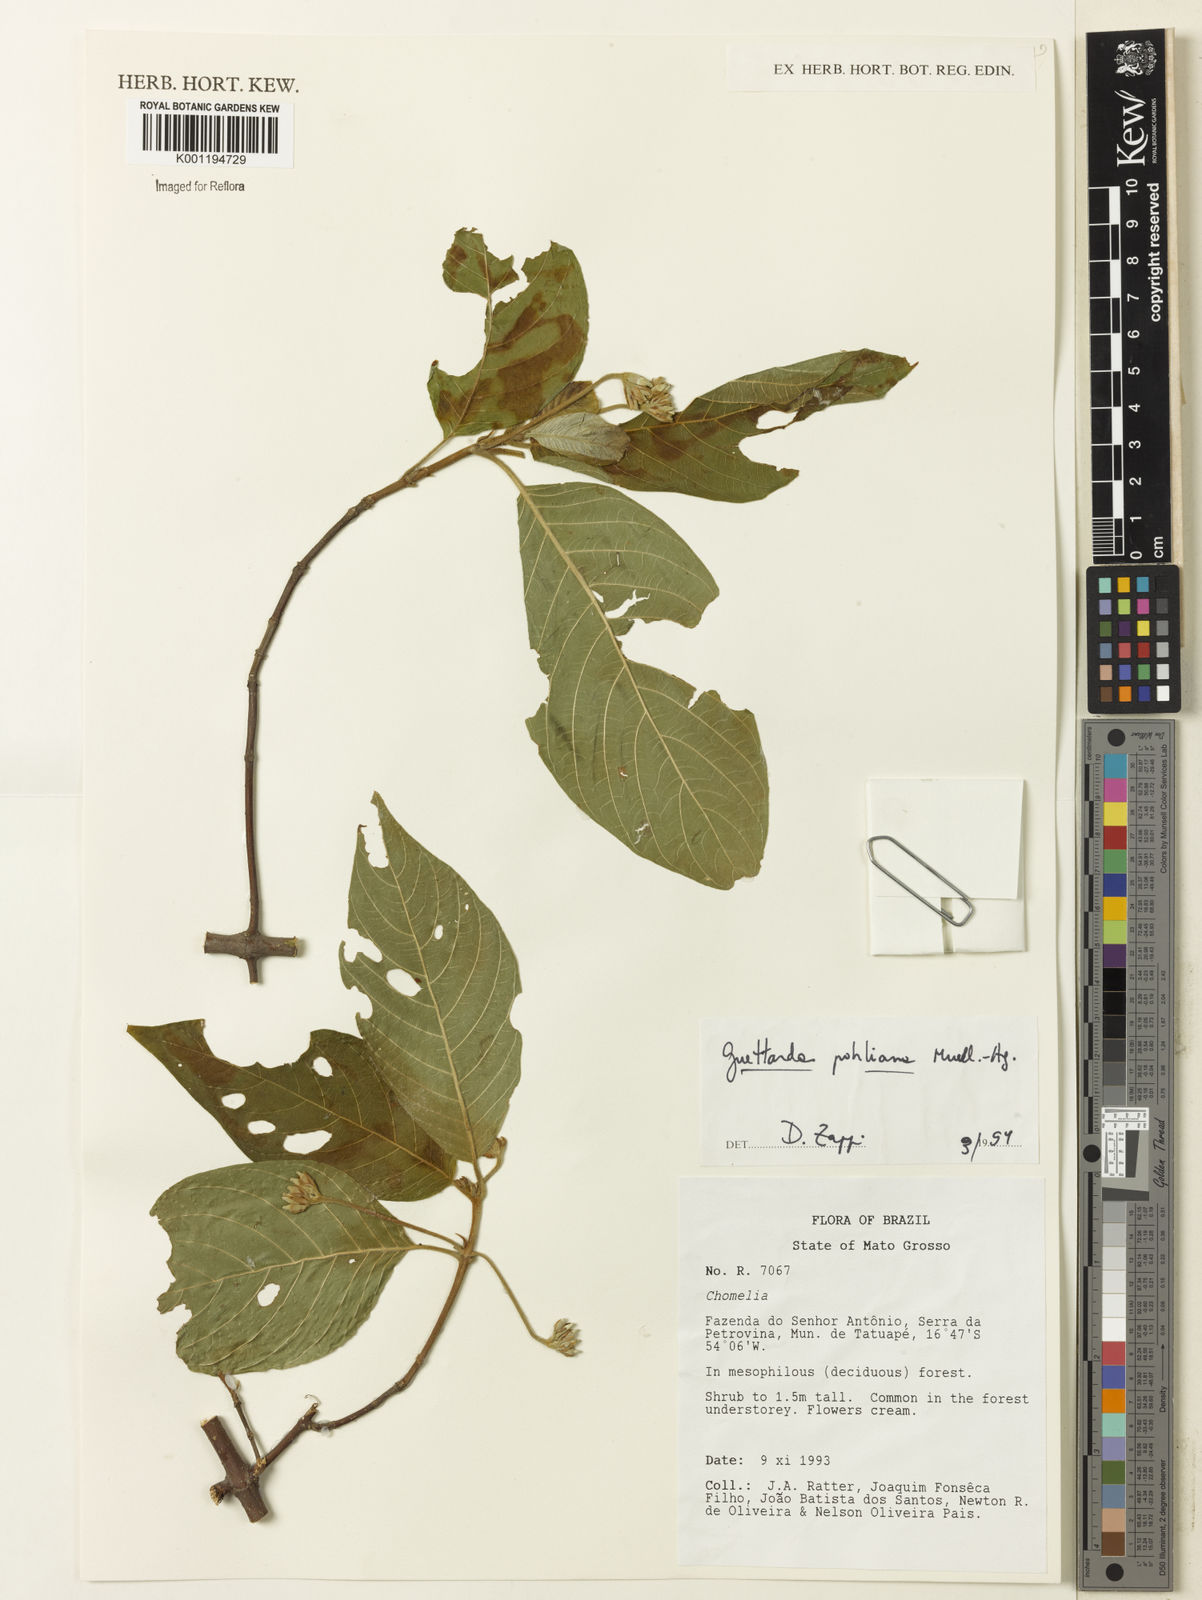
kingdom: Plantae
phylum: Tracheophyta
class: Magnoliopsida
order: Gentianales
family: Rubiaceae
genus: Guettarda
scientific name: Guettarda mattogrossensis
